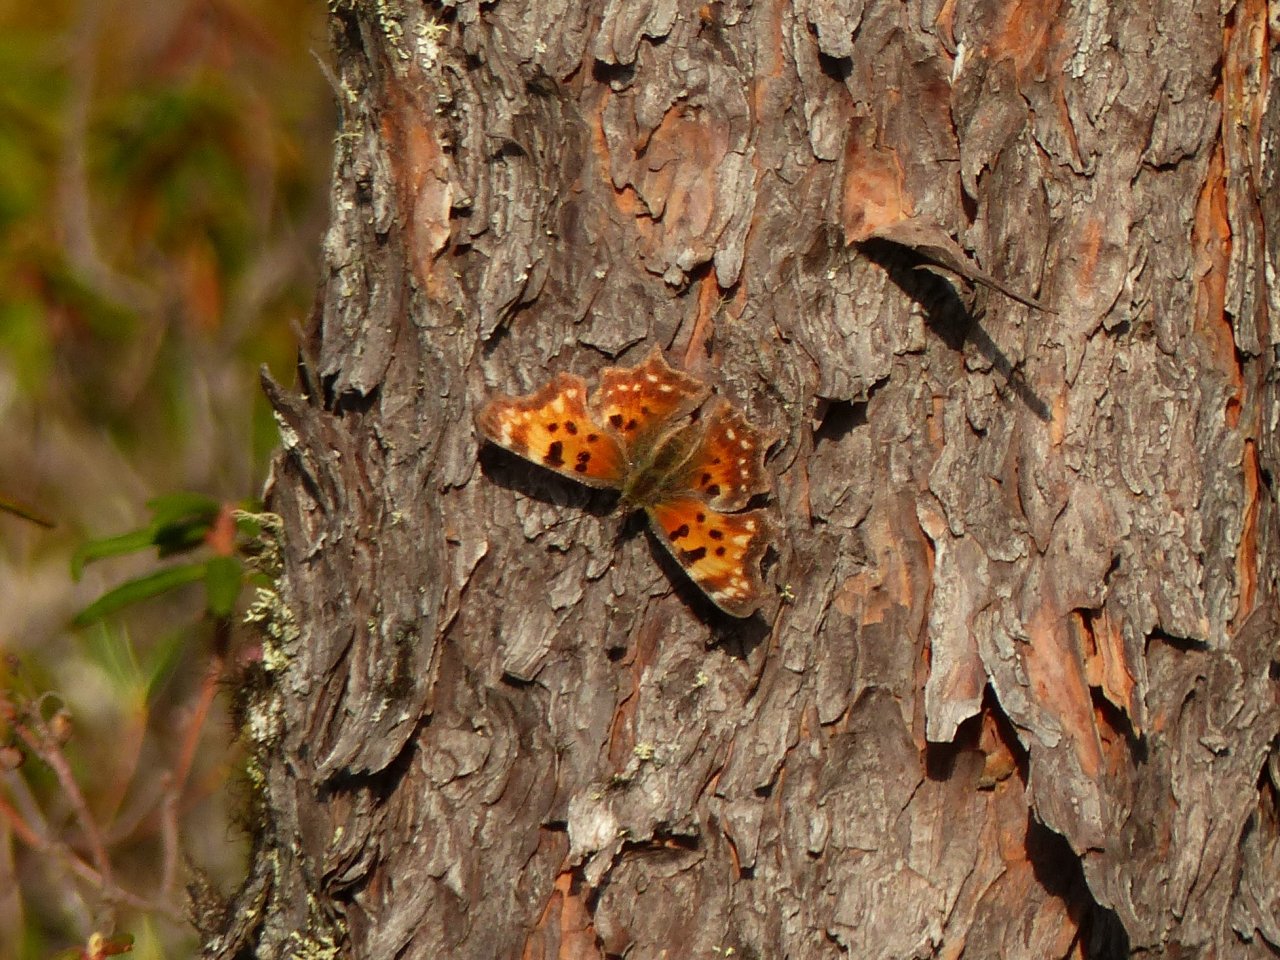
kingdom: Animalia
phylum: Arthropoda
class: Insecta
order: Lepidoptera
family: Nymphalidae
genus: Polygonia
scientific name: Polygonia faunus
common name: Green Comma
